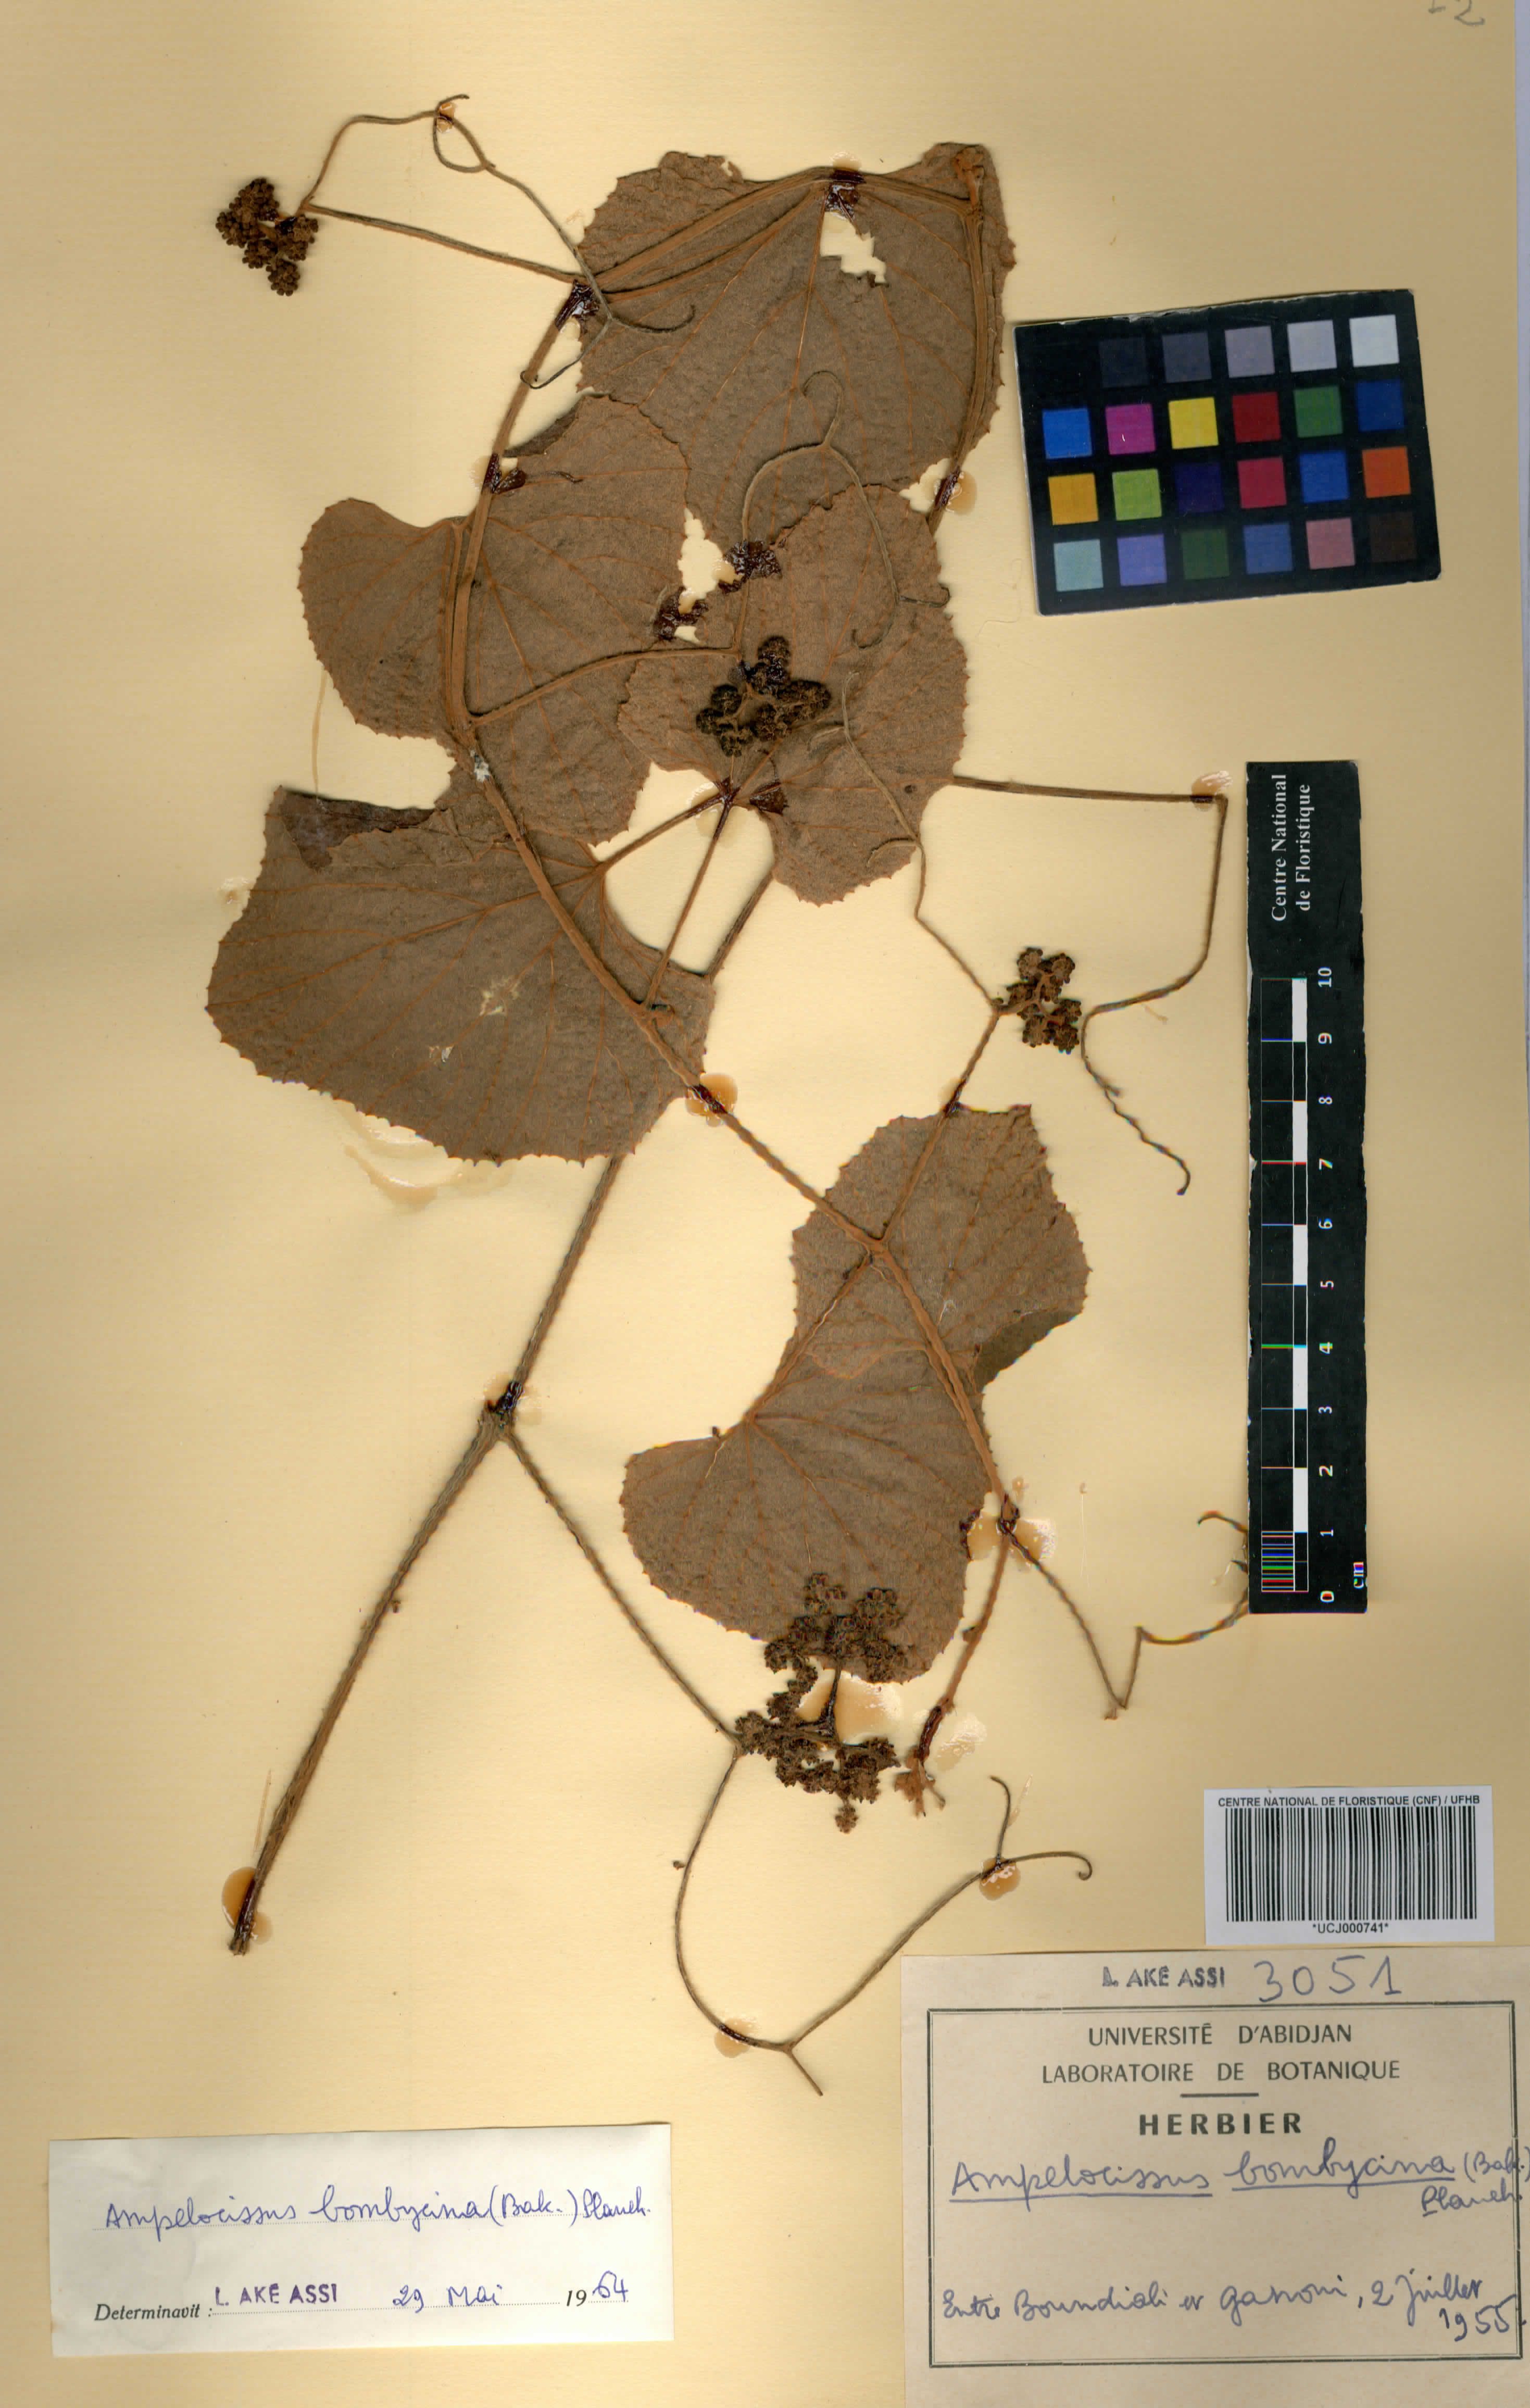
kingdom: Plantae
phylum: Tracheophyta
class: Magnoliopsida
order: Vitales
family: Vitaceae
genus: Ampelocissus
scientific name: Ampelocissus bombycina
